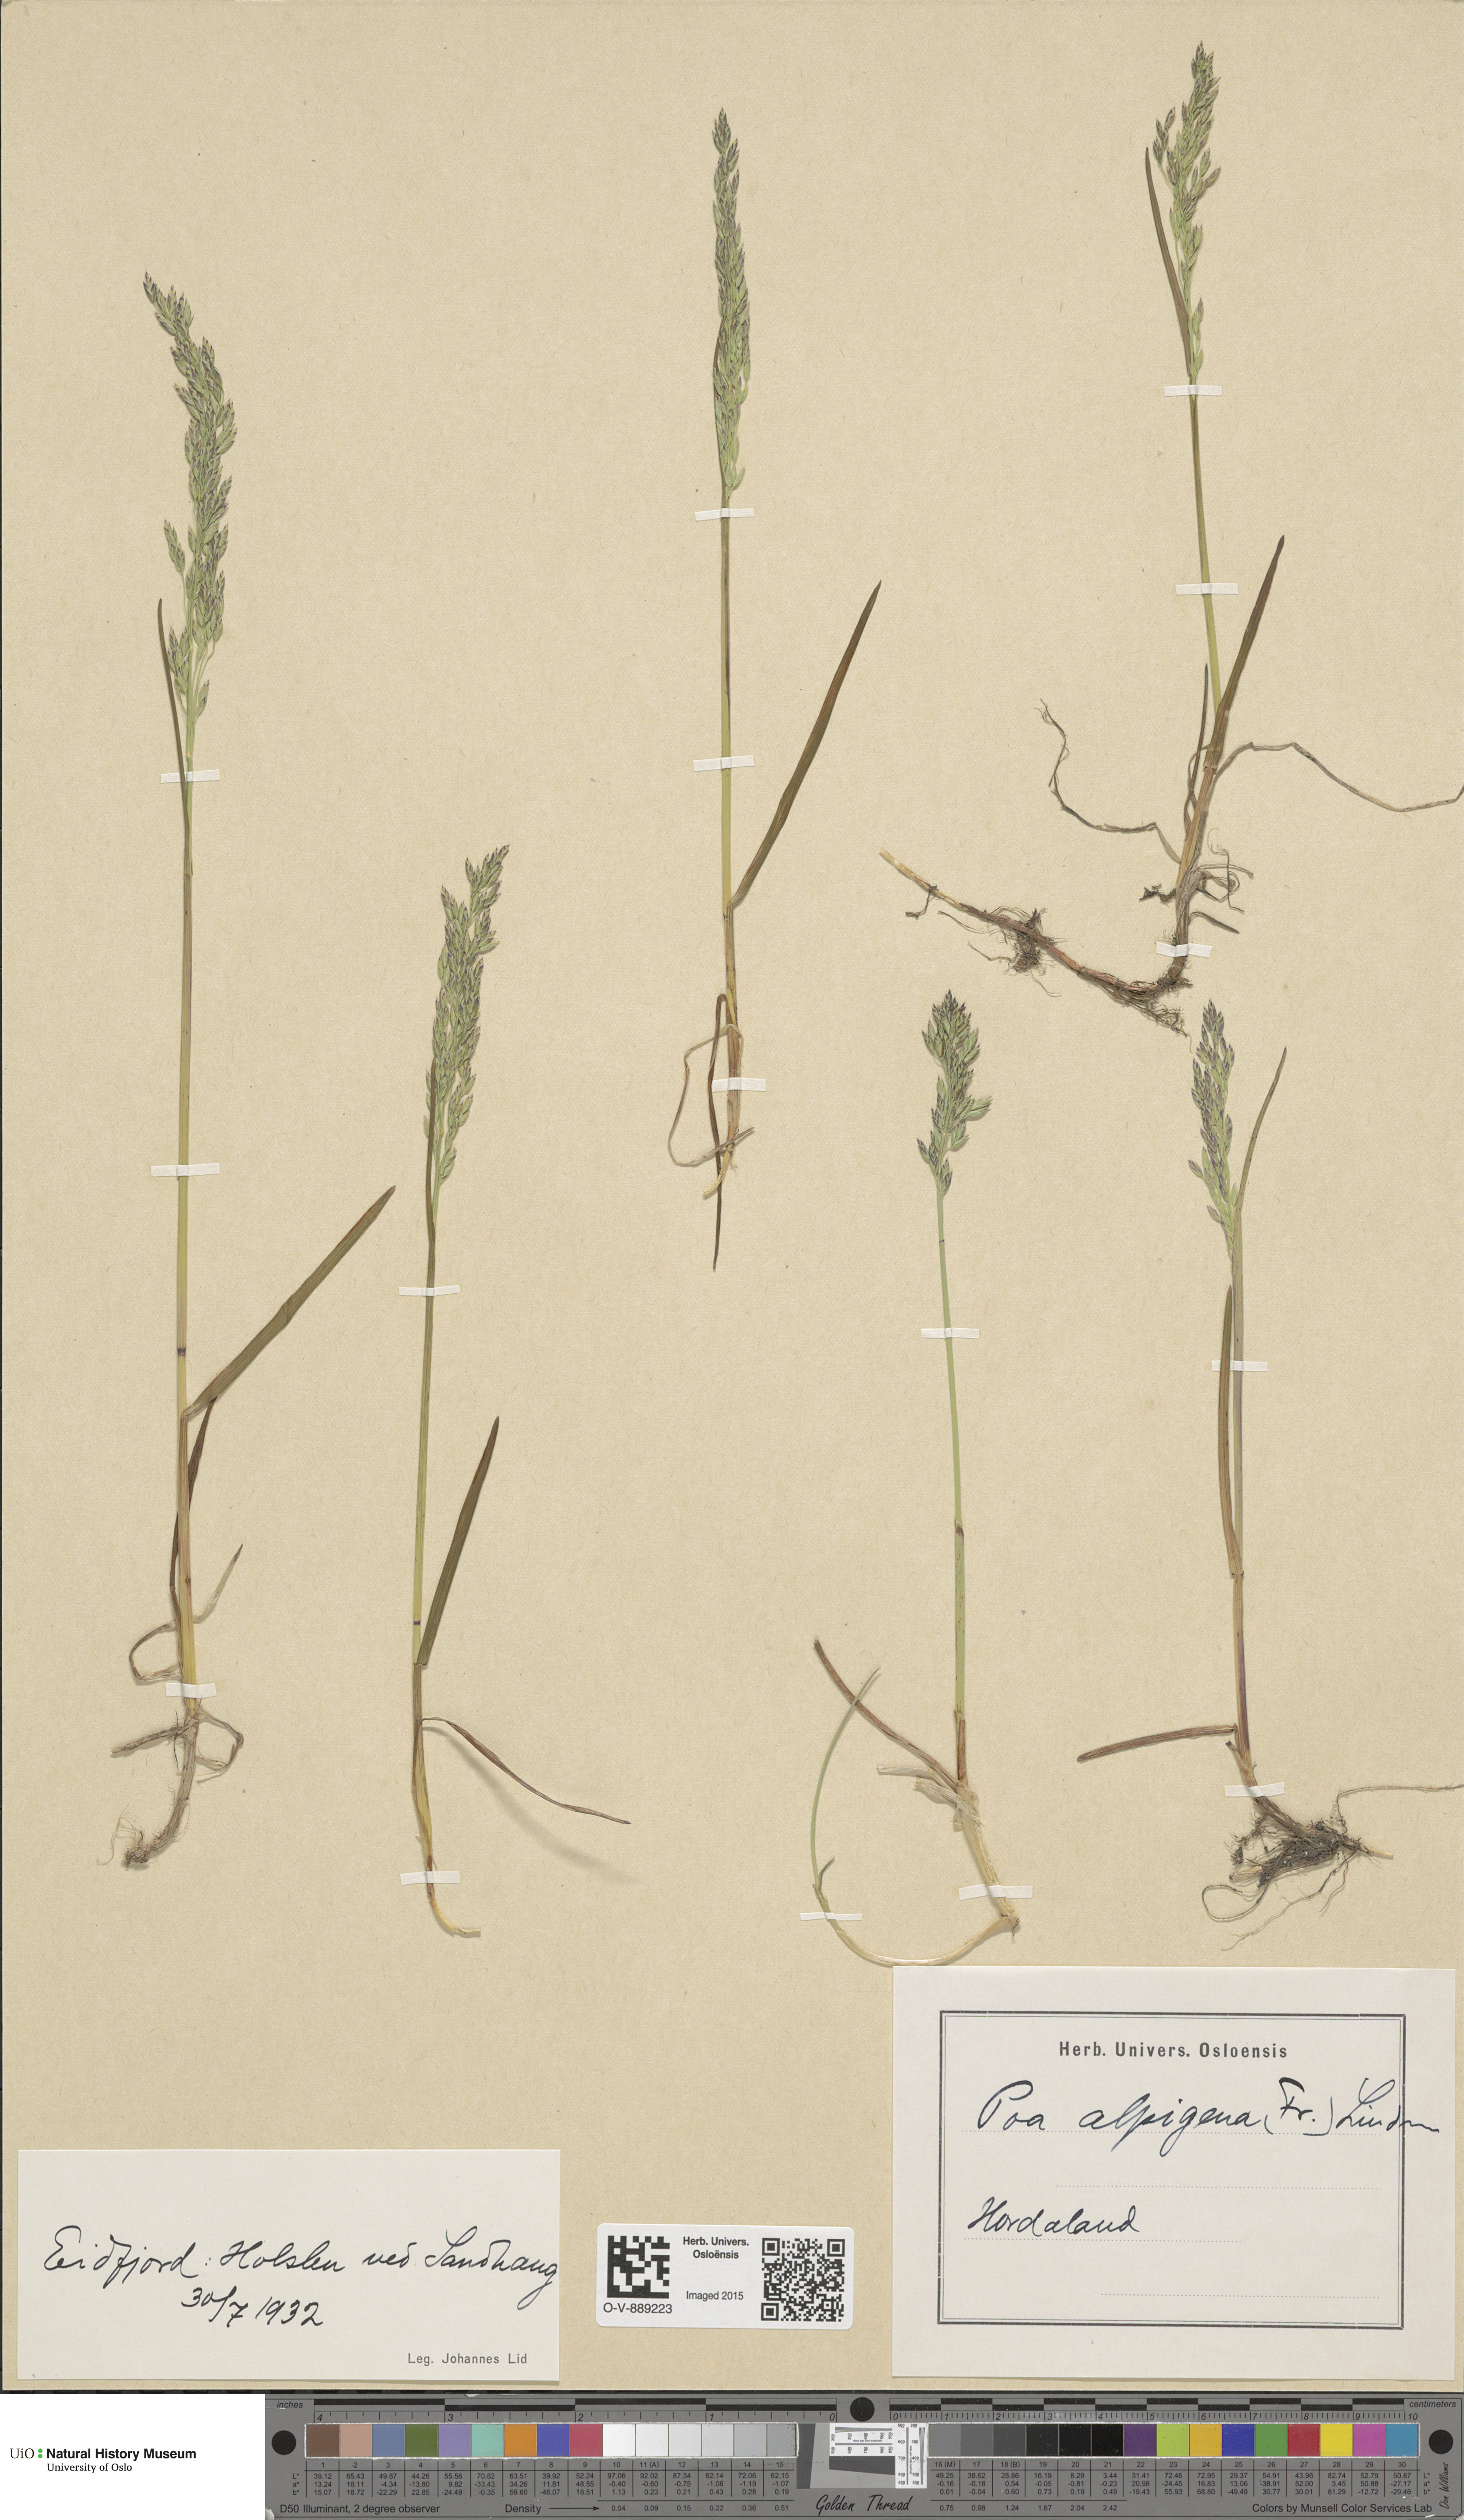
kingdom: Plantae
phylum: Tracheophyta
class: Liliopsida
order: Poales
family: Poaceae
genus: Poa
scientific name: Poa alpigena
